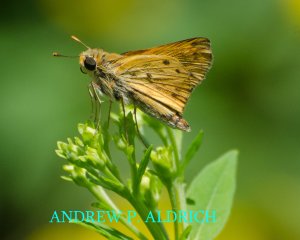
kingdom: Animalia
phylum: Arthropoda
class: Insecta
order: Lepidoptera
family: Hesperiidae
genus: Hylephila
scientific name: Hylephila phyleus
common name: Fiery Skipper
